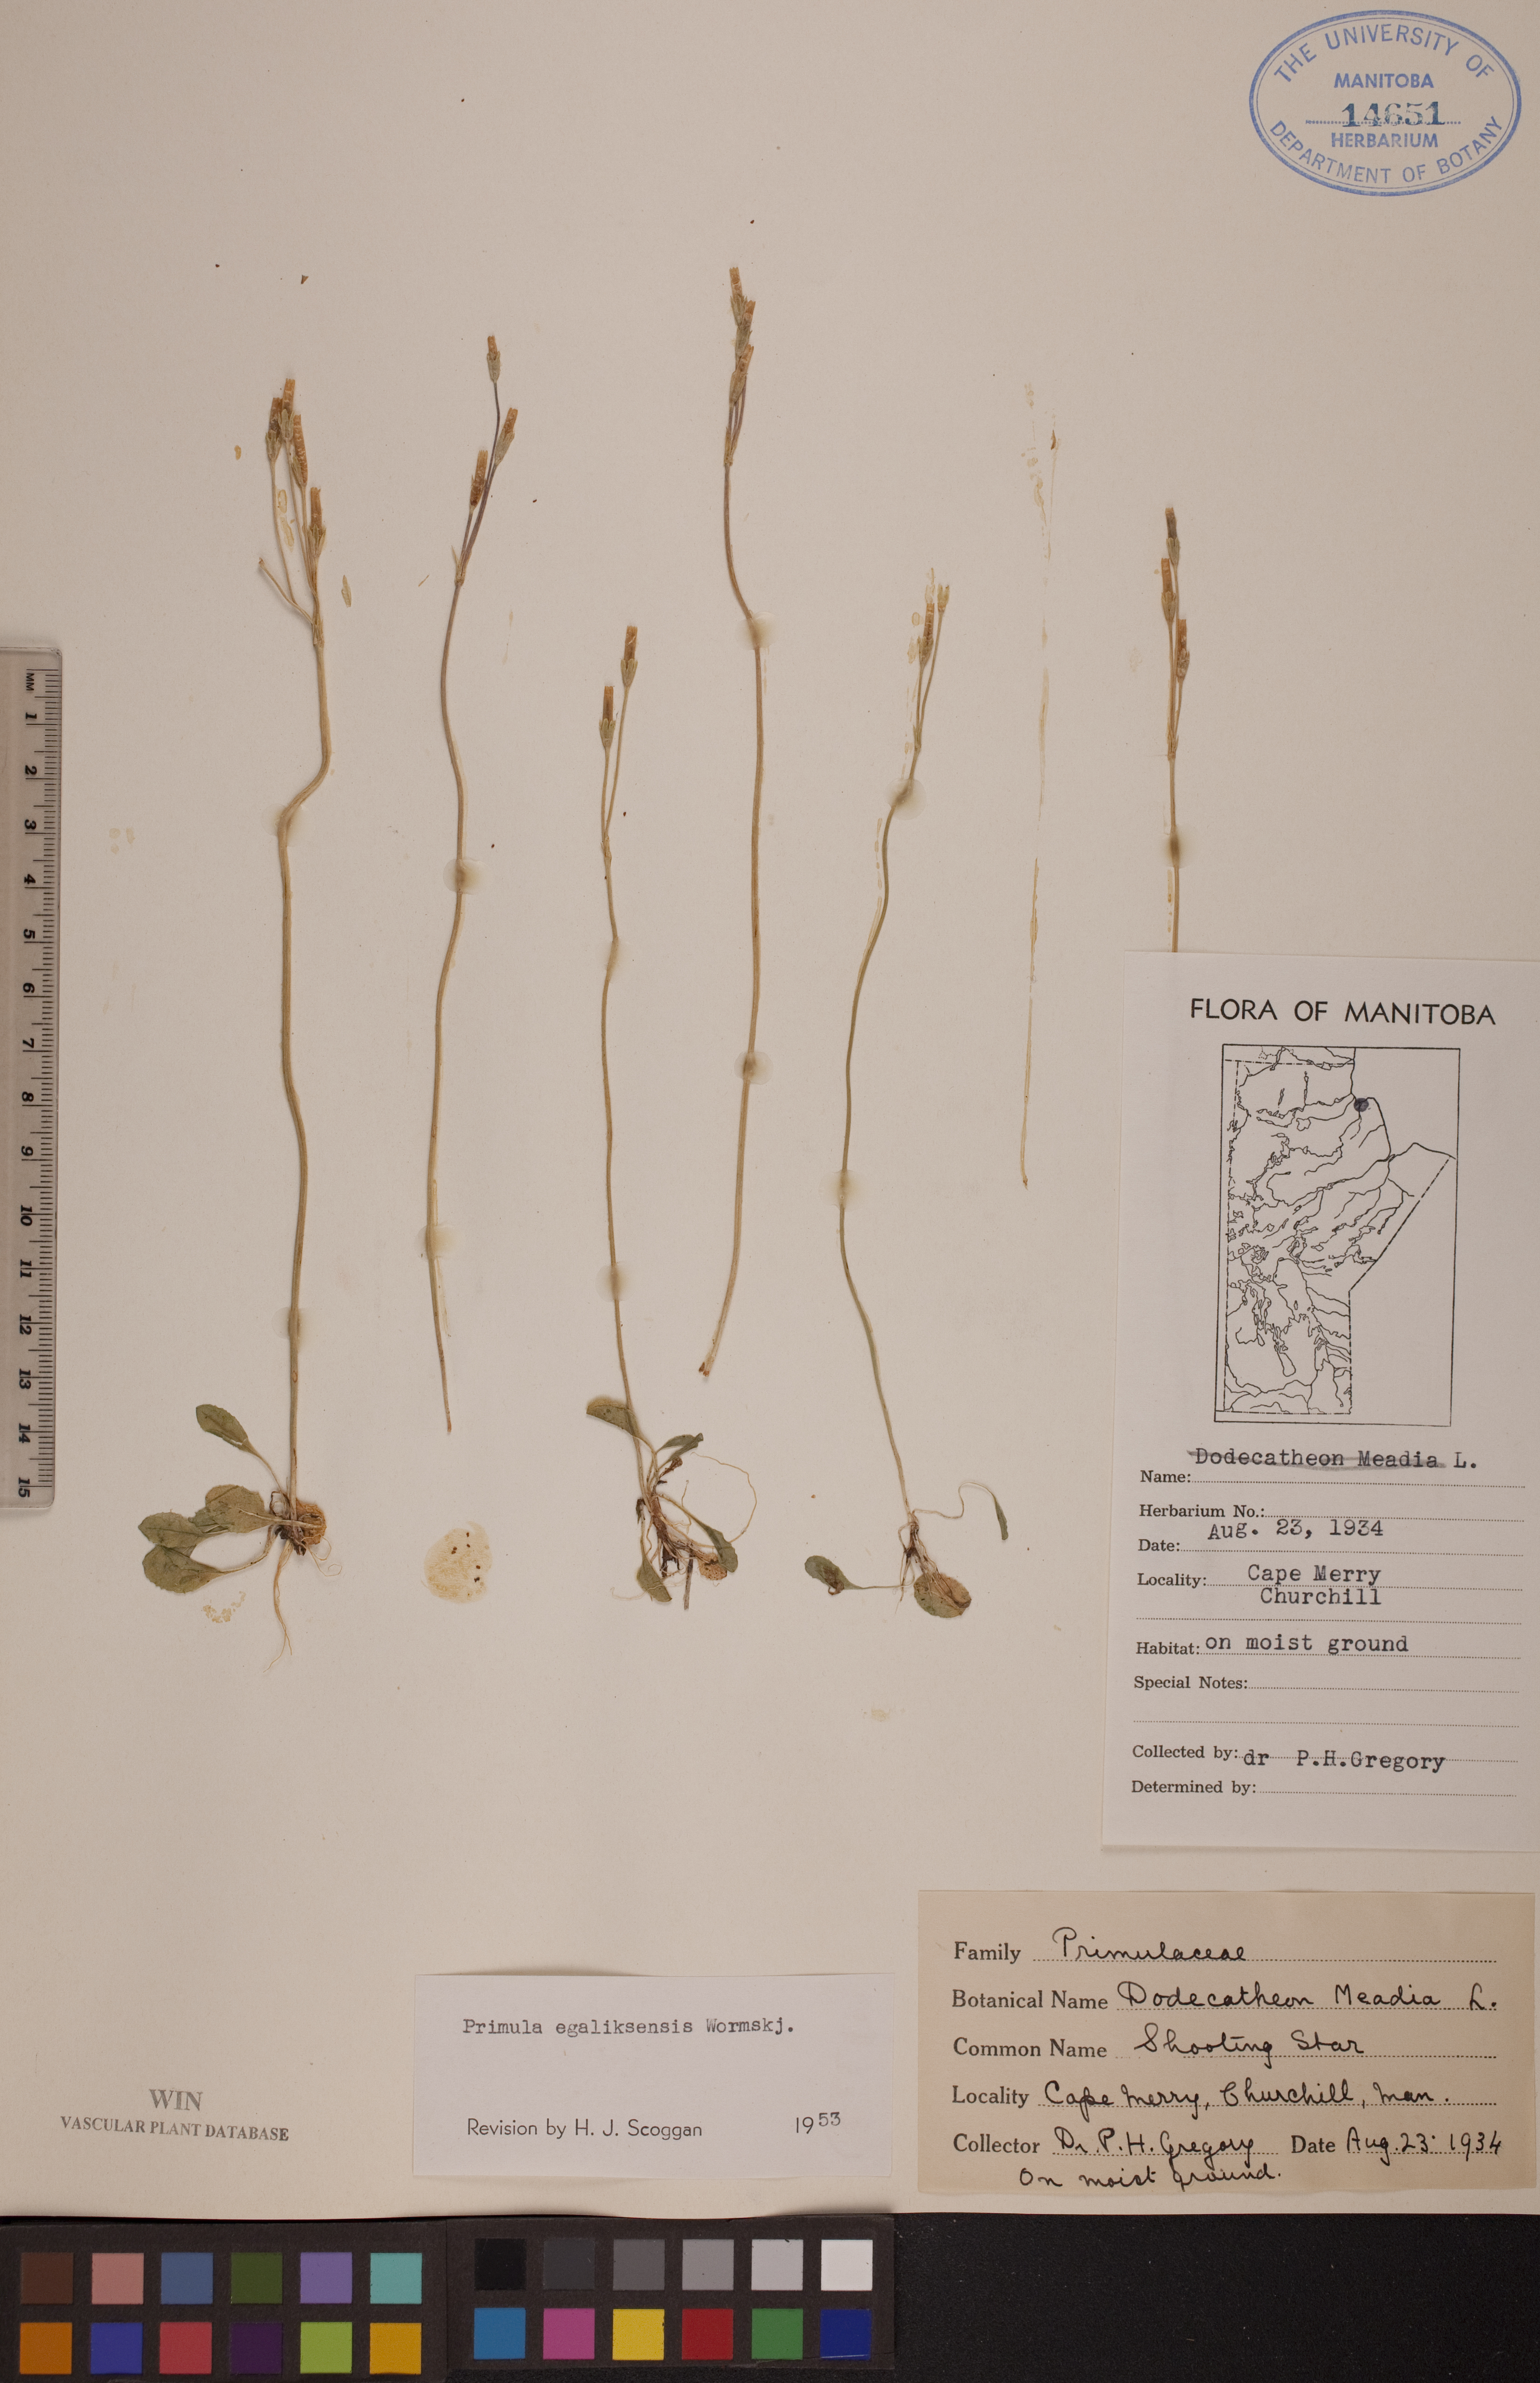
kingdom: Plantae
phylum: Tracheophyta
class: Magnoliopsida
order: Ericales
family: Primulaceae
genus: Primula
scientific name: Primula egaliksensis
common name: Greenland primrose
